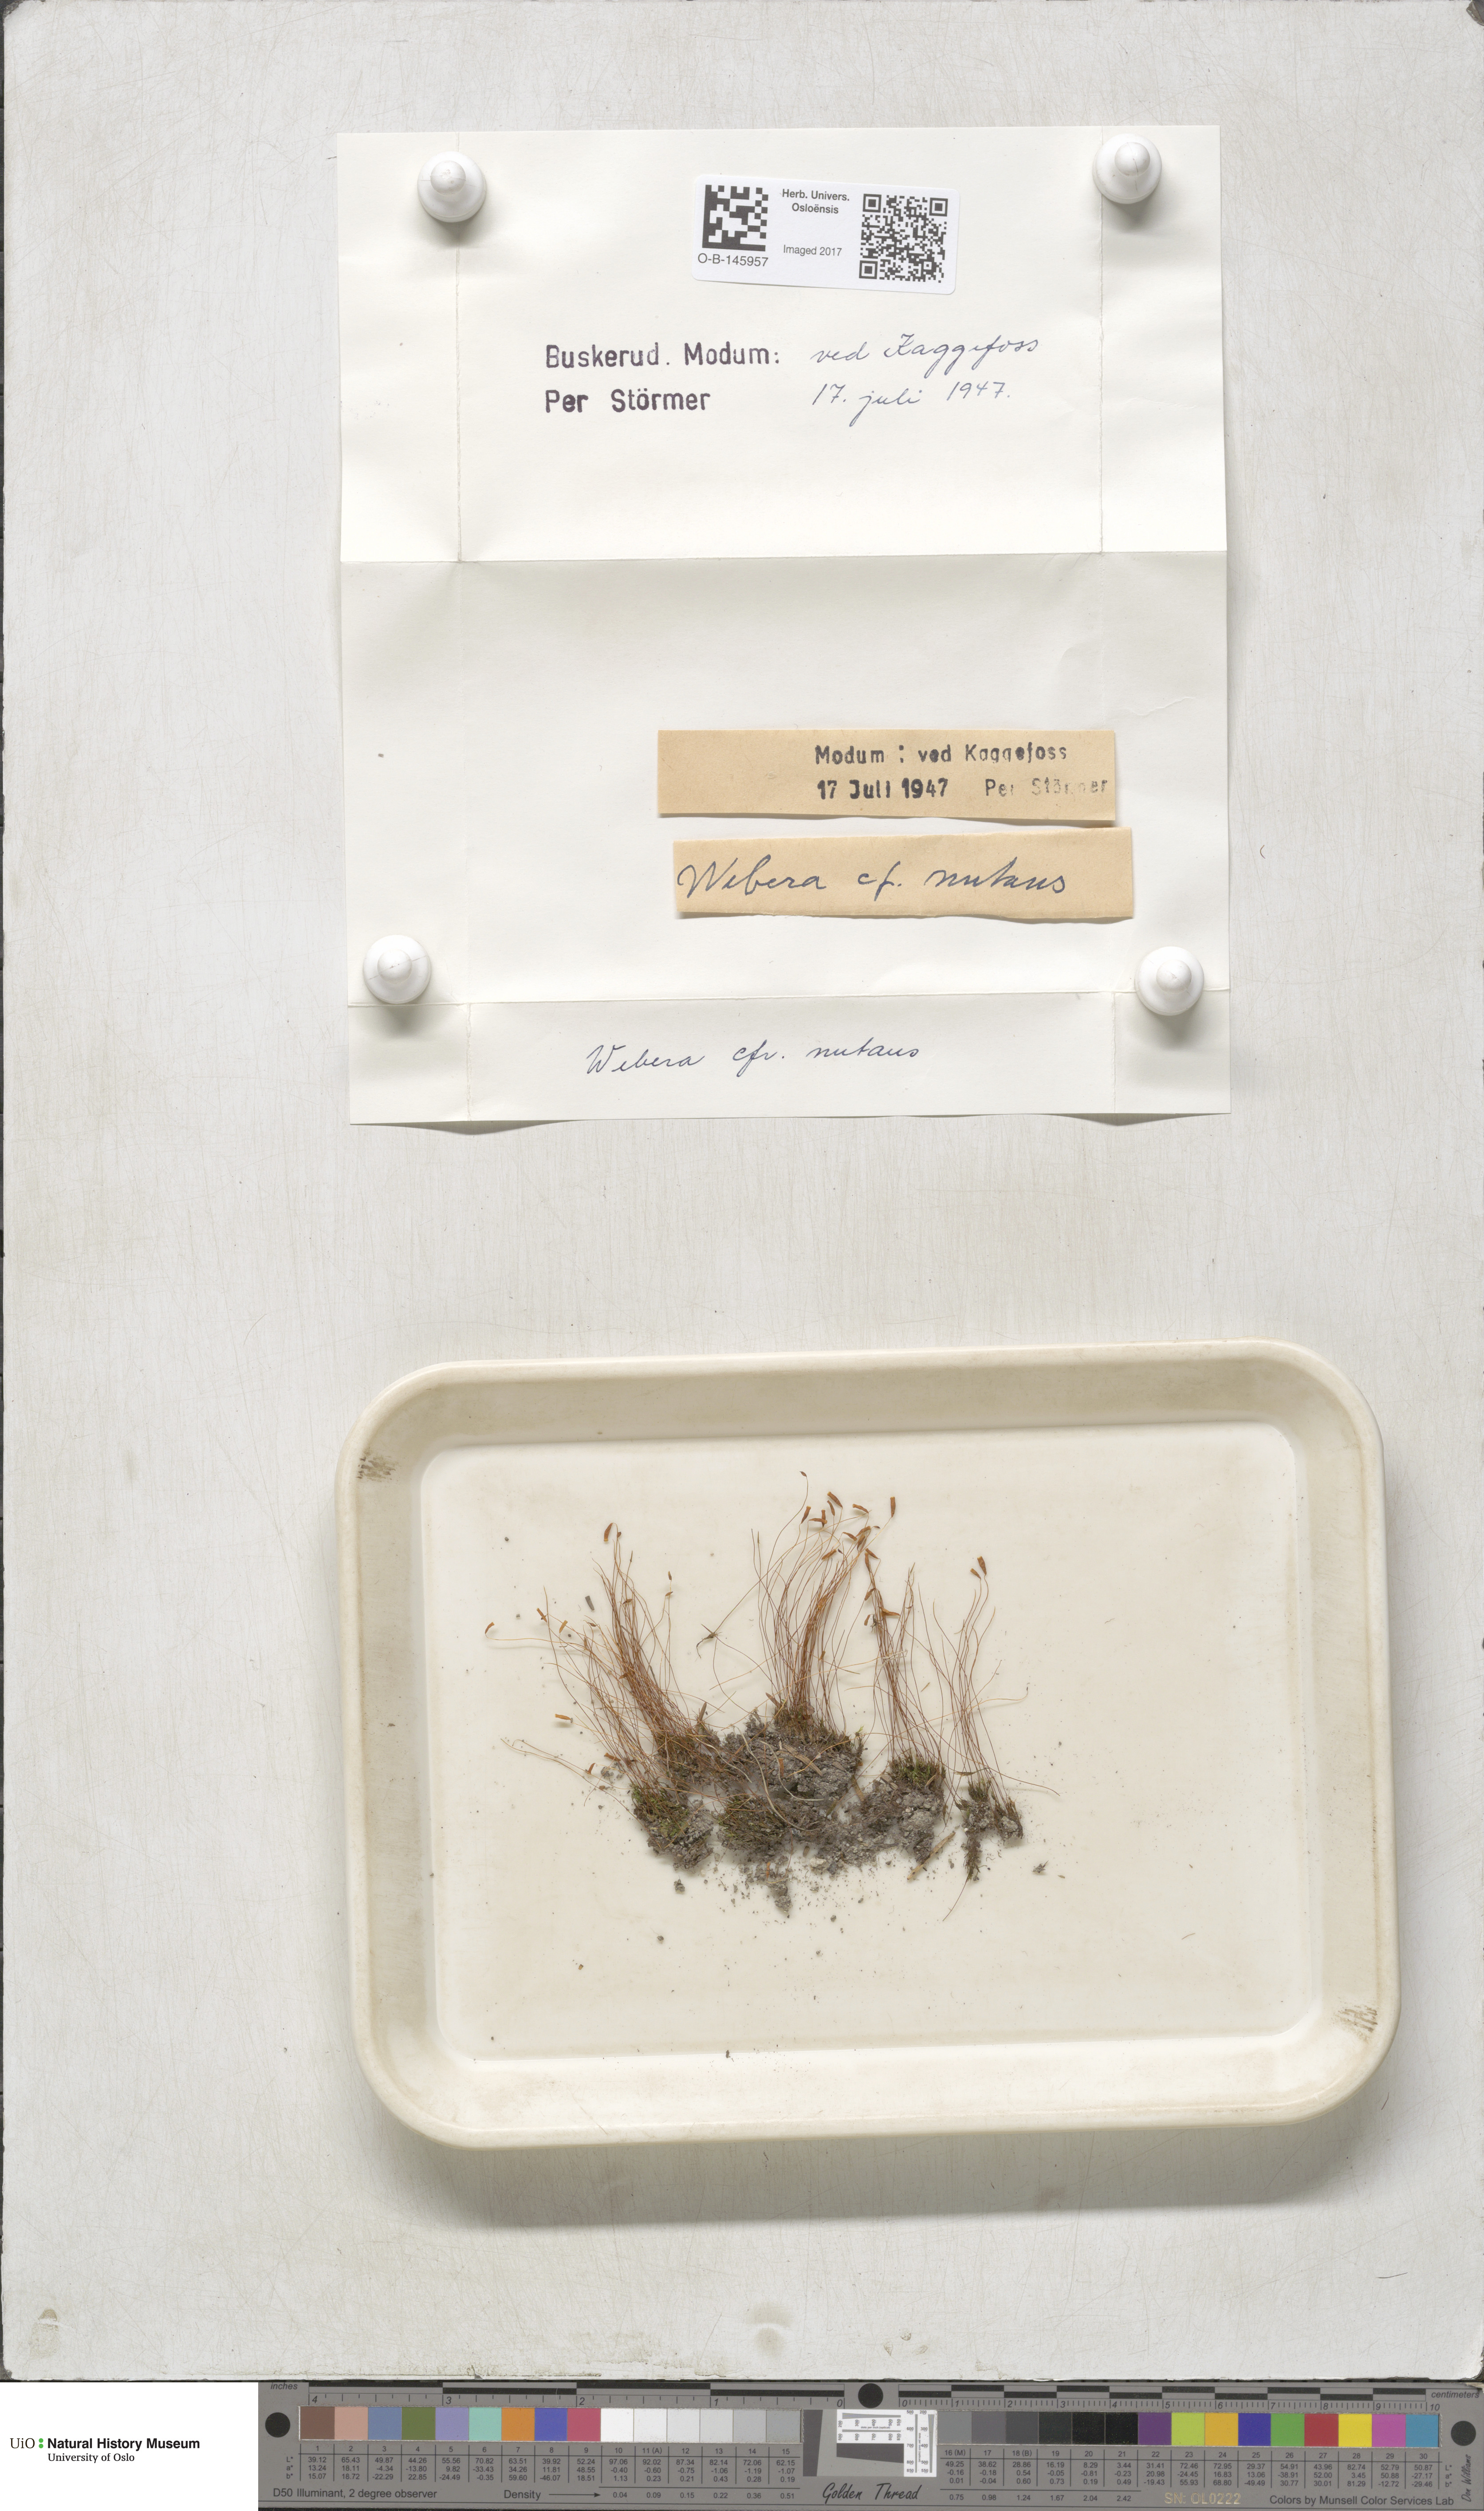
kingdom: Plantae
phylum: Bryophyta
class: Bryopsida
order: Bryales
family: Mniaceae
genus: Pohlia
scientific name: Pohlia nutans
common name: Nodding thread-moss
